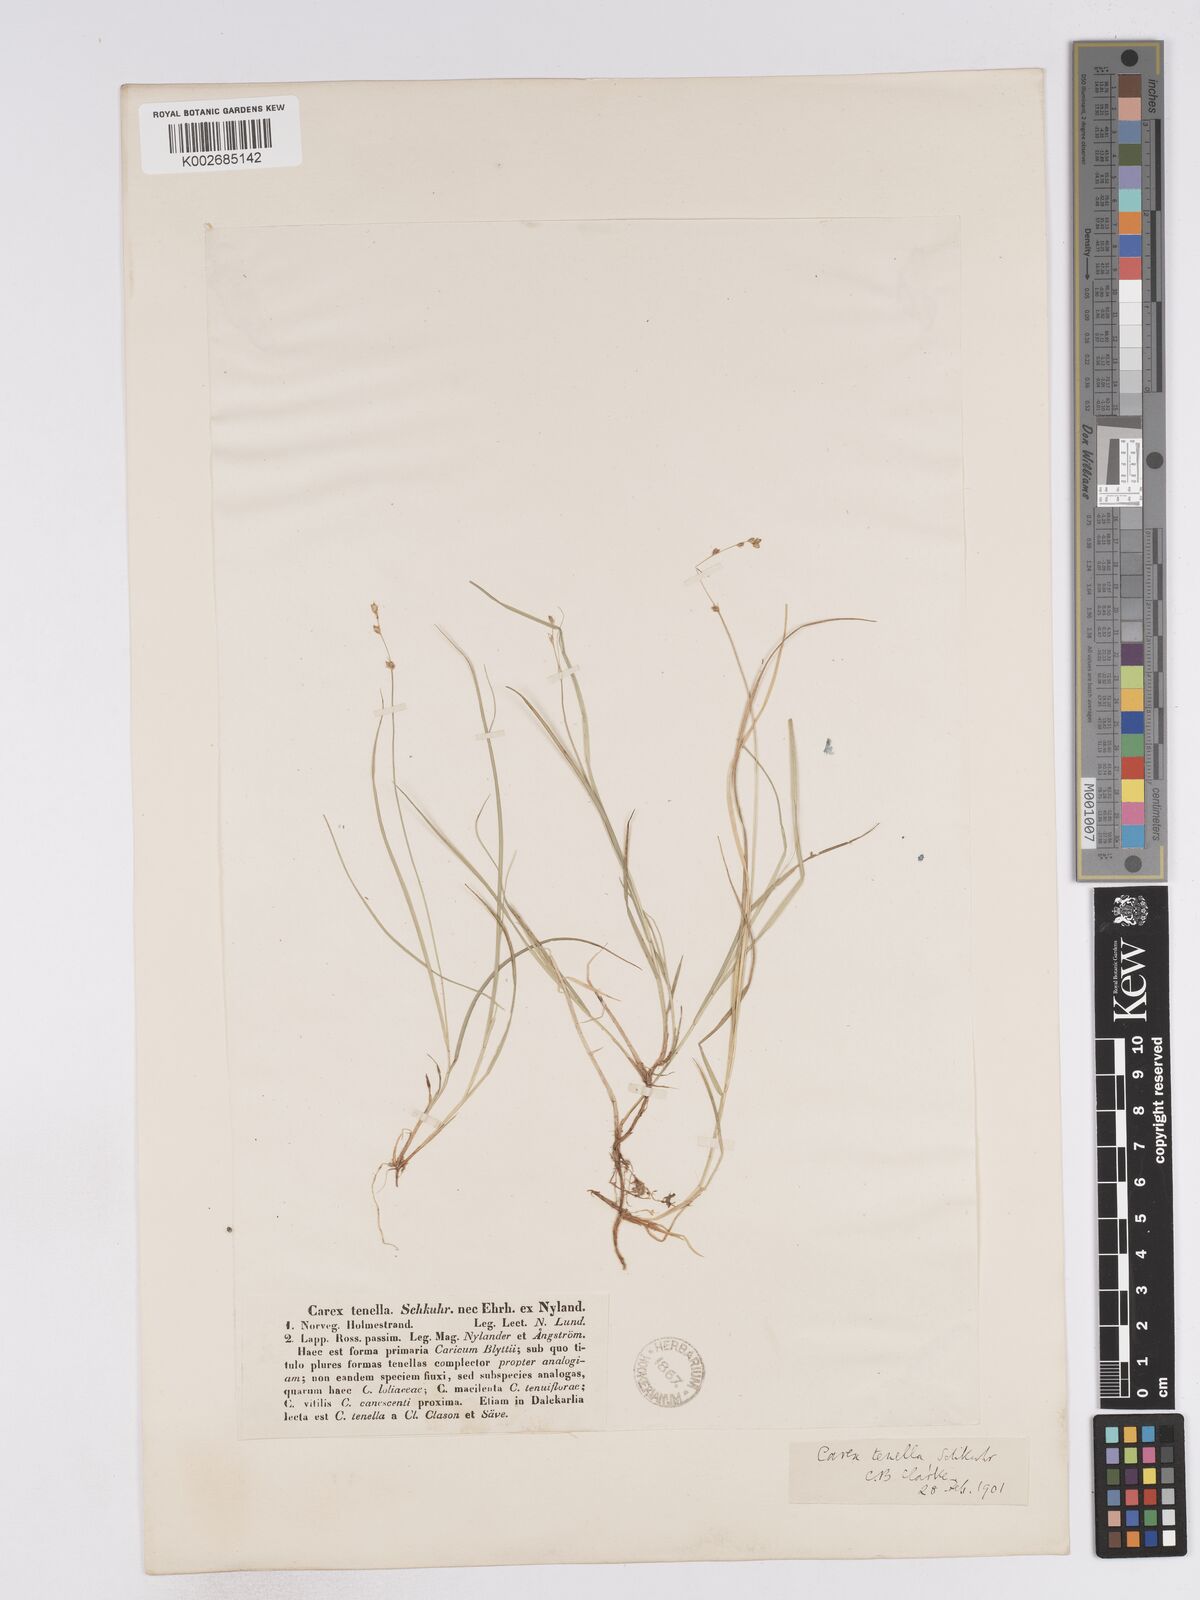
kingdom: Plantae
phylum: Tracheophyta
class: Liliopsida
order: Poales
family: Cyperaceae
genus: Carex
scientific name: Carex disperma
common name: Short-leaved sedge
